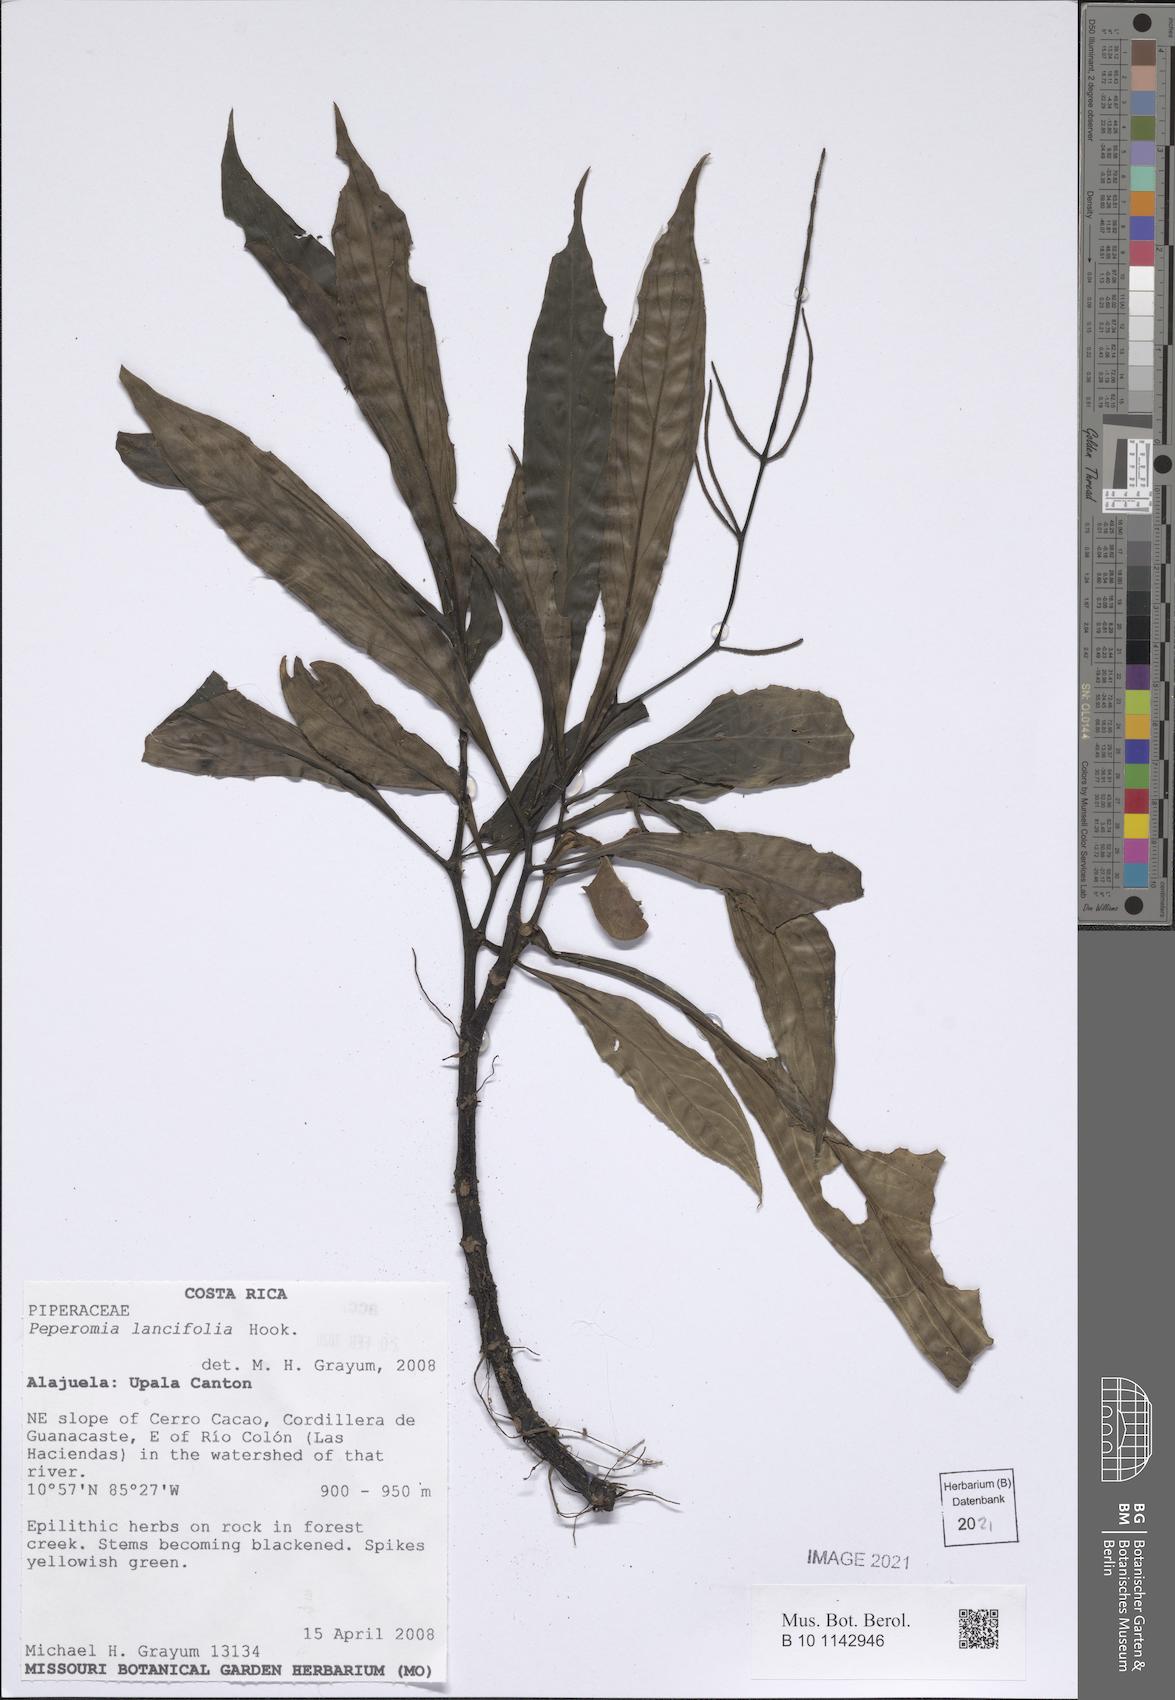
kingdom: Plantae
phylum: Tracheophyta
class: Magnoliopsida
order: Piperales
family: Piperaceae
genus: Peperomia
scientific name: Peperomia lancifolia
